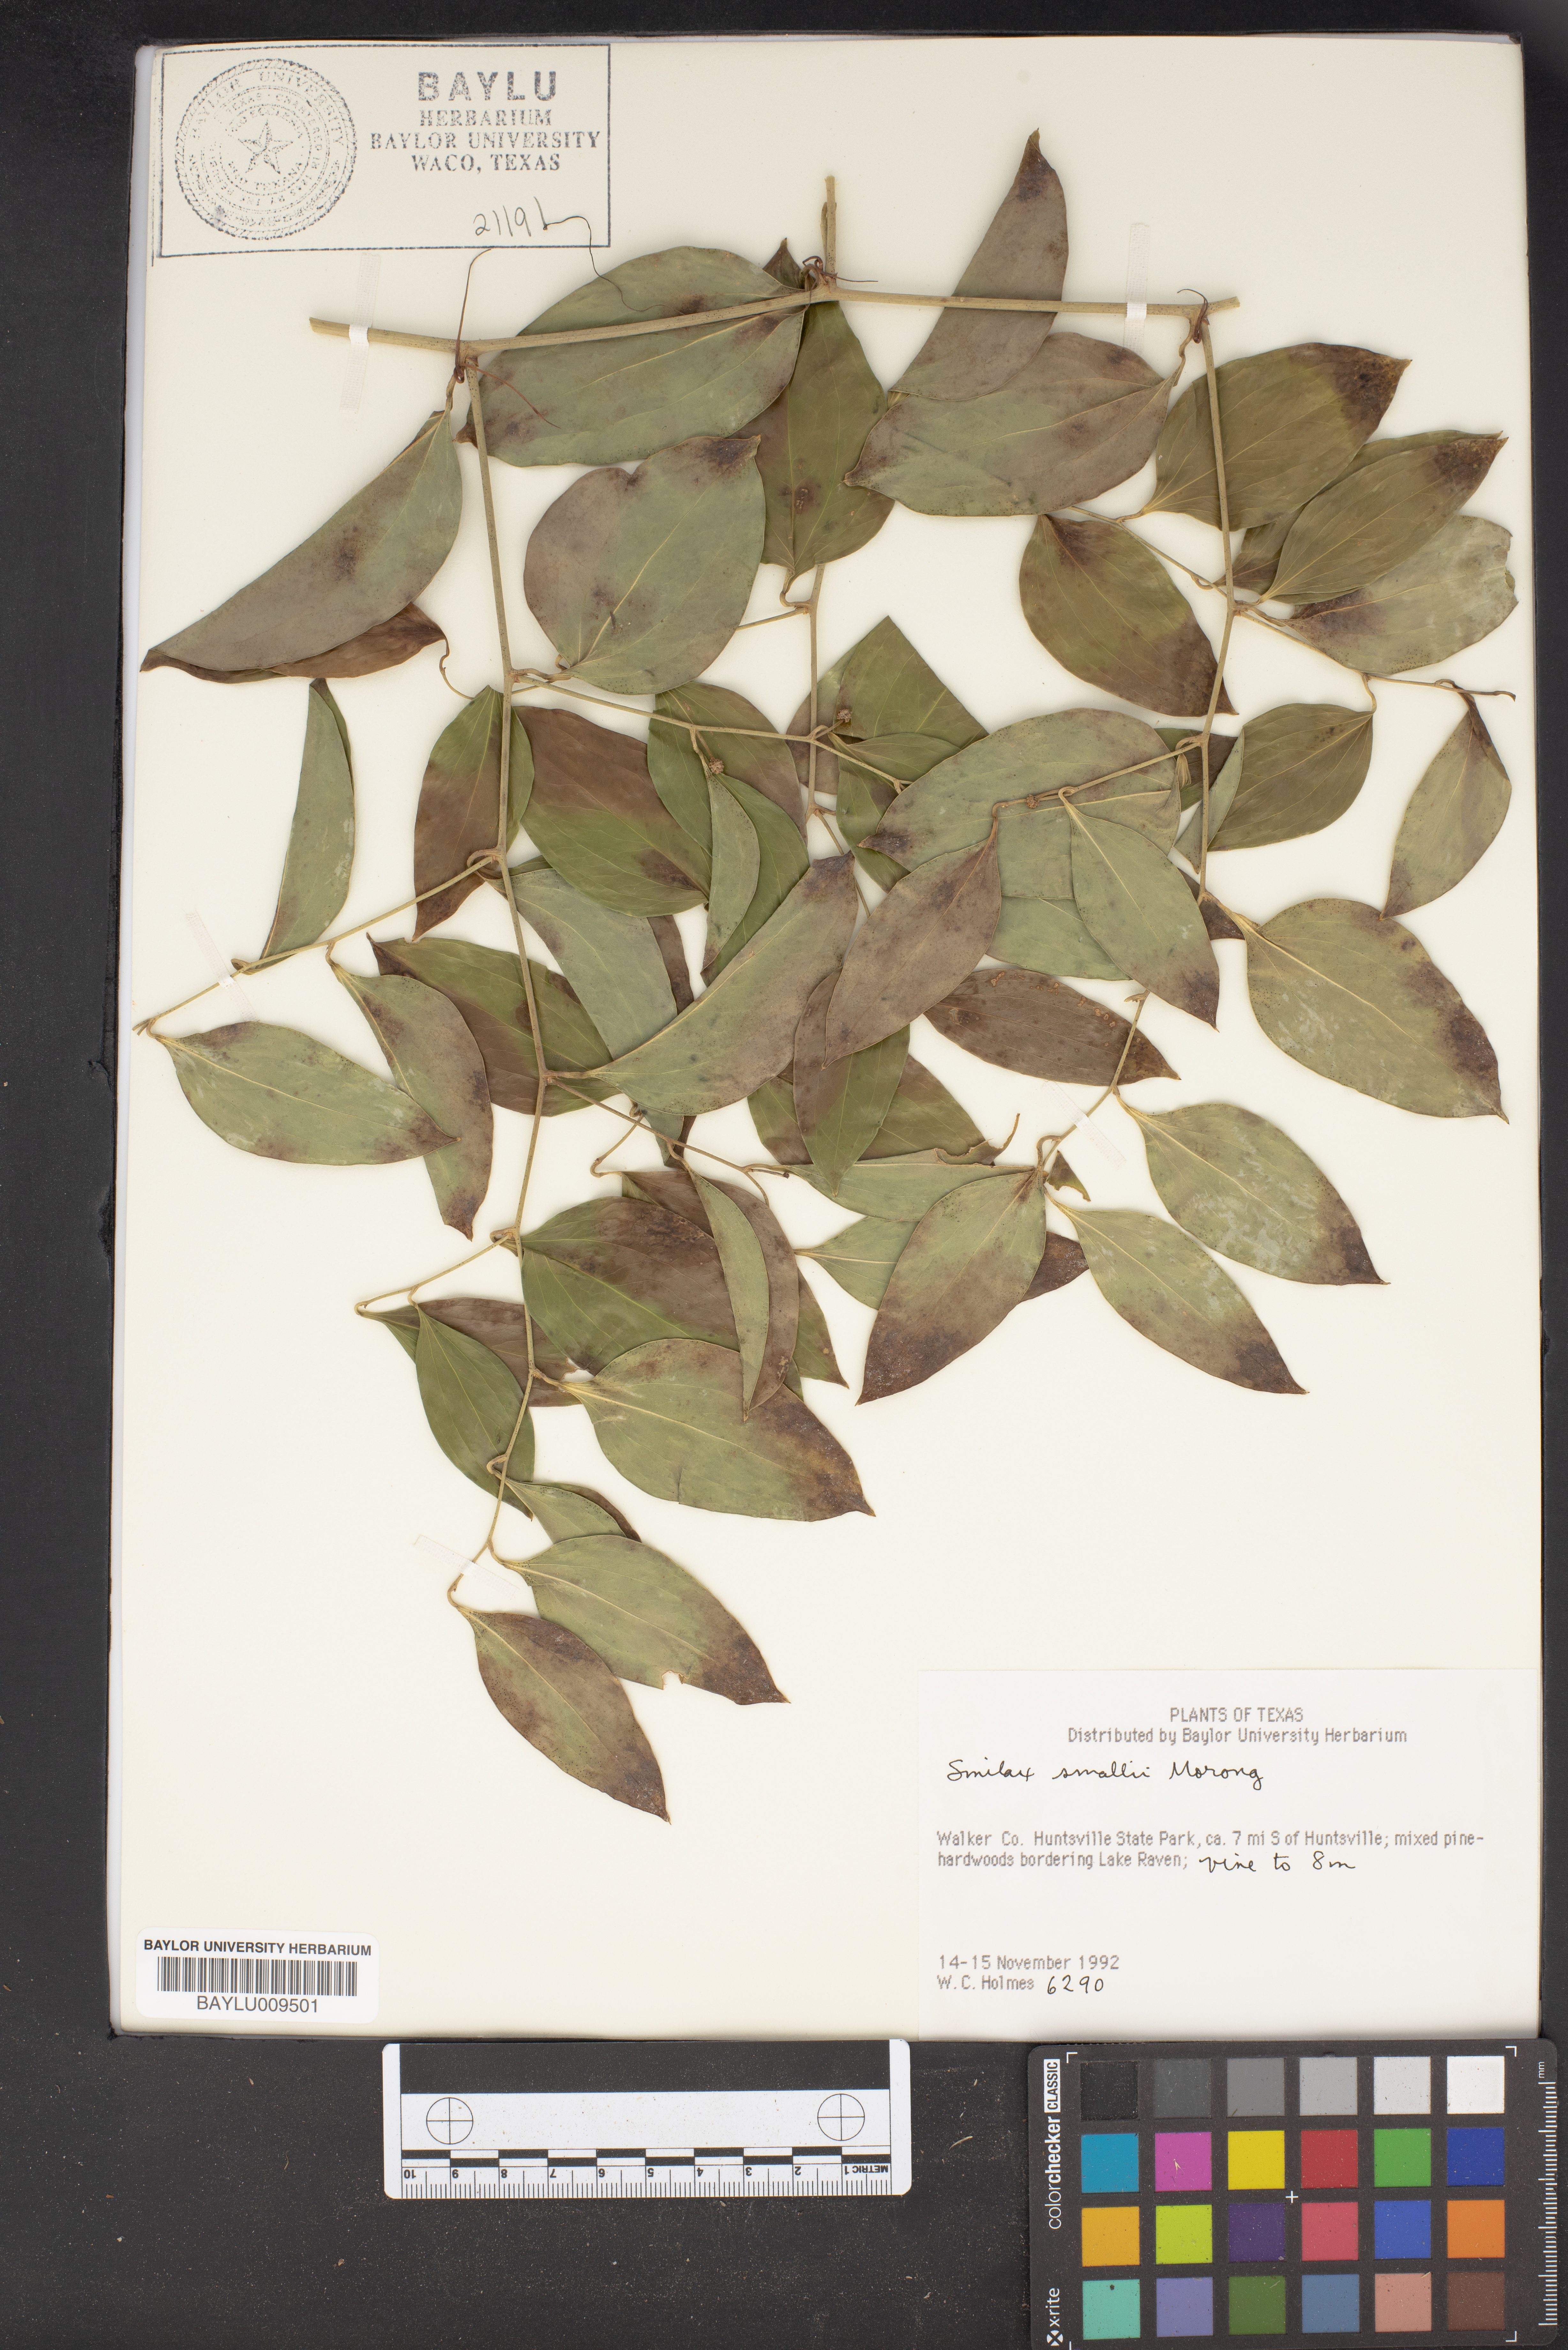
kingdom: Plantae
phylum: Tracheophyta
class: Liliopsida
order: Liliales
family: Smilacaceae
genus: Smilax
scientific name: Smilax maritima
